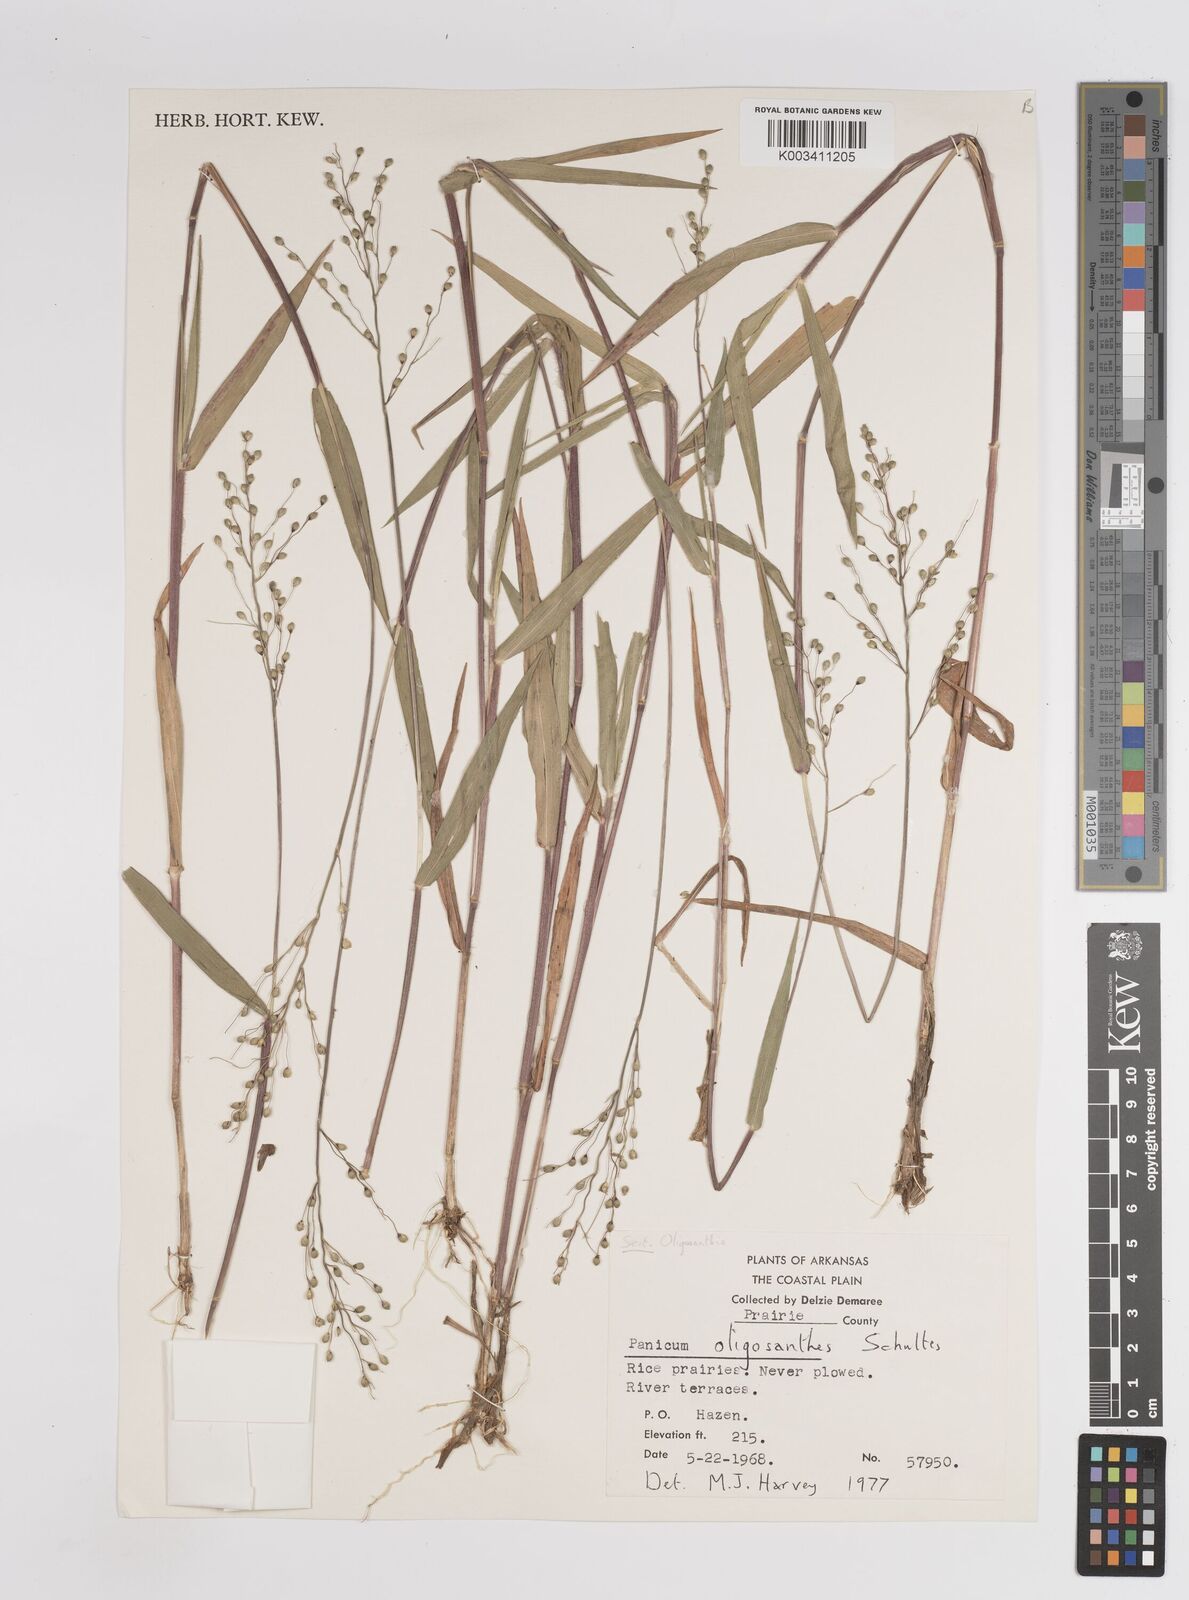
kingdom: Plantae
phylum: Tracheophyta
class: Liliopsida
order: Poales
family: Poaceae
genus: Dichanthelium
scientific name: Dichanthelium oligosanthes
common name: Few-anther obscuregrass
